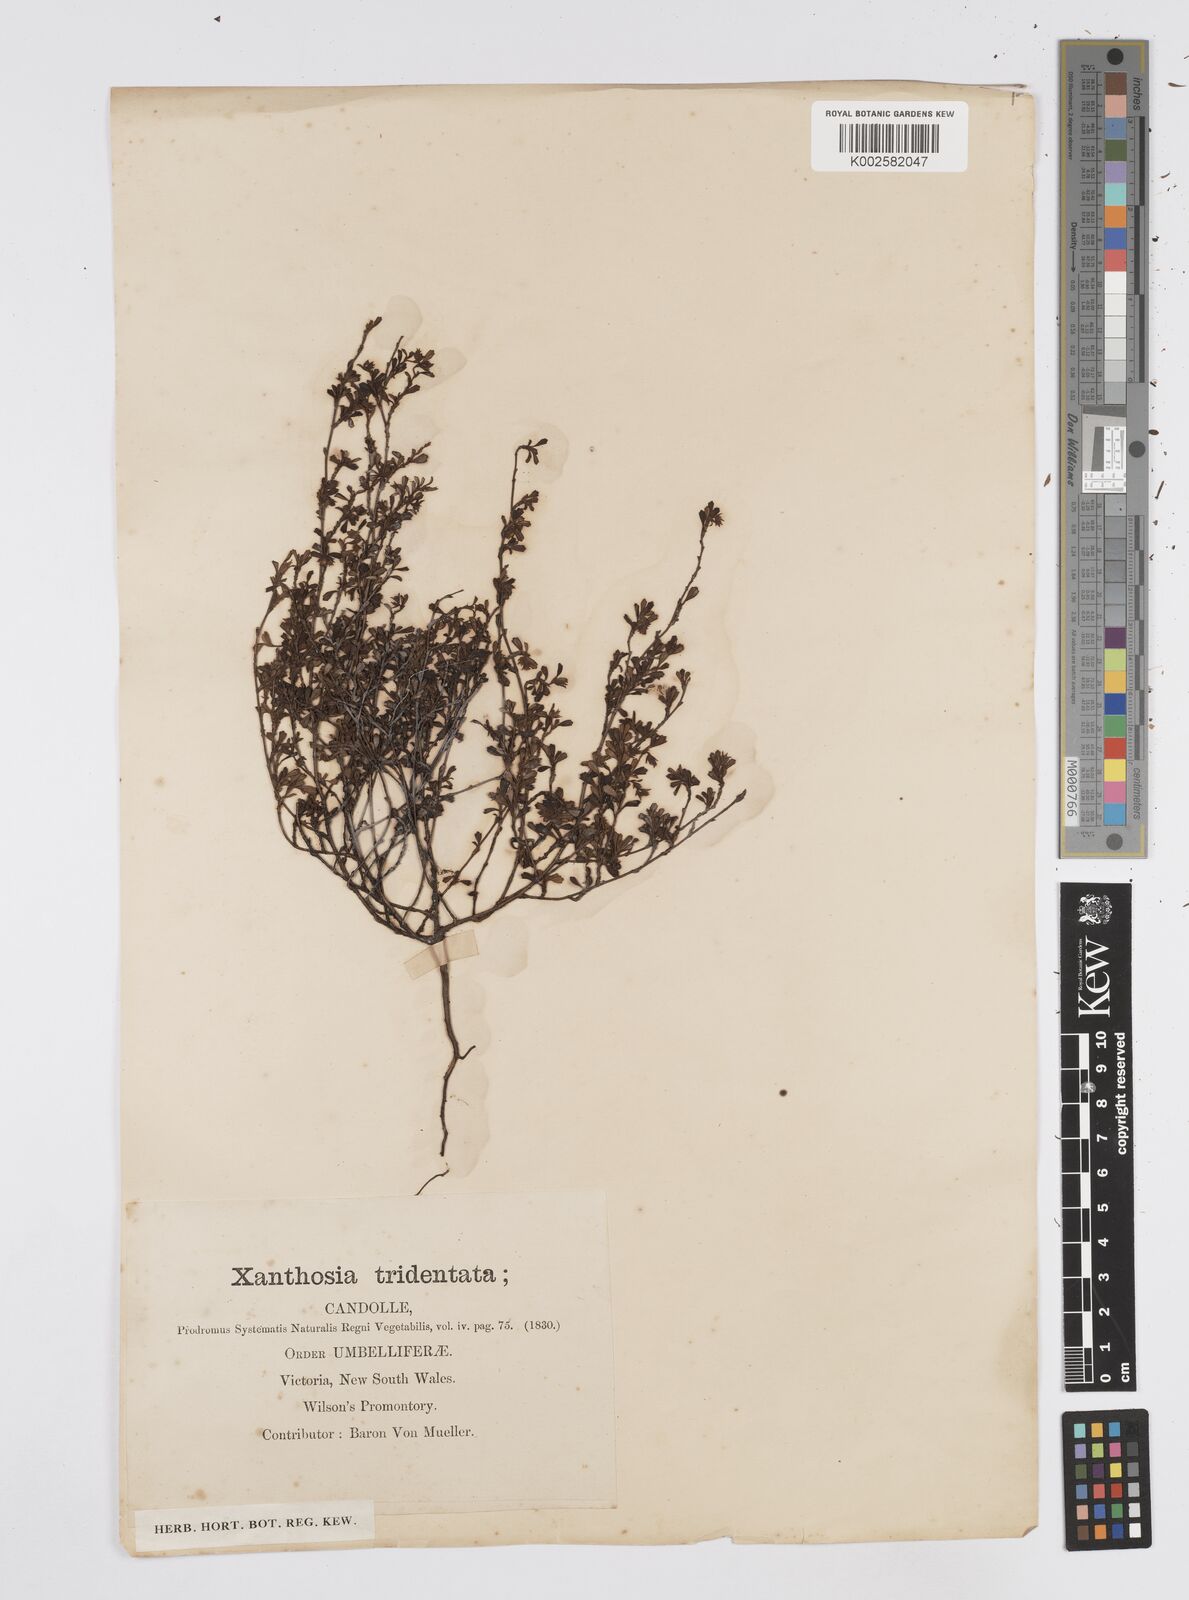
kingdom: Plantae
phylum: Tracheophyta
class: Magnoliopsida
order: Apiales
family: Apiaceae
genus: Xanthosia
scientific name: Xanthosia tridentata
